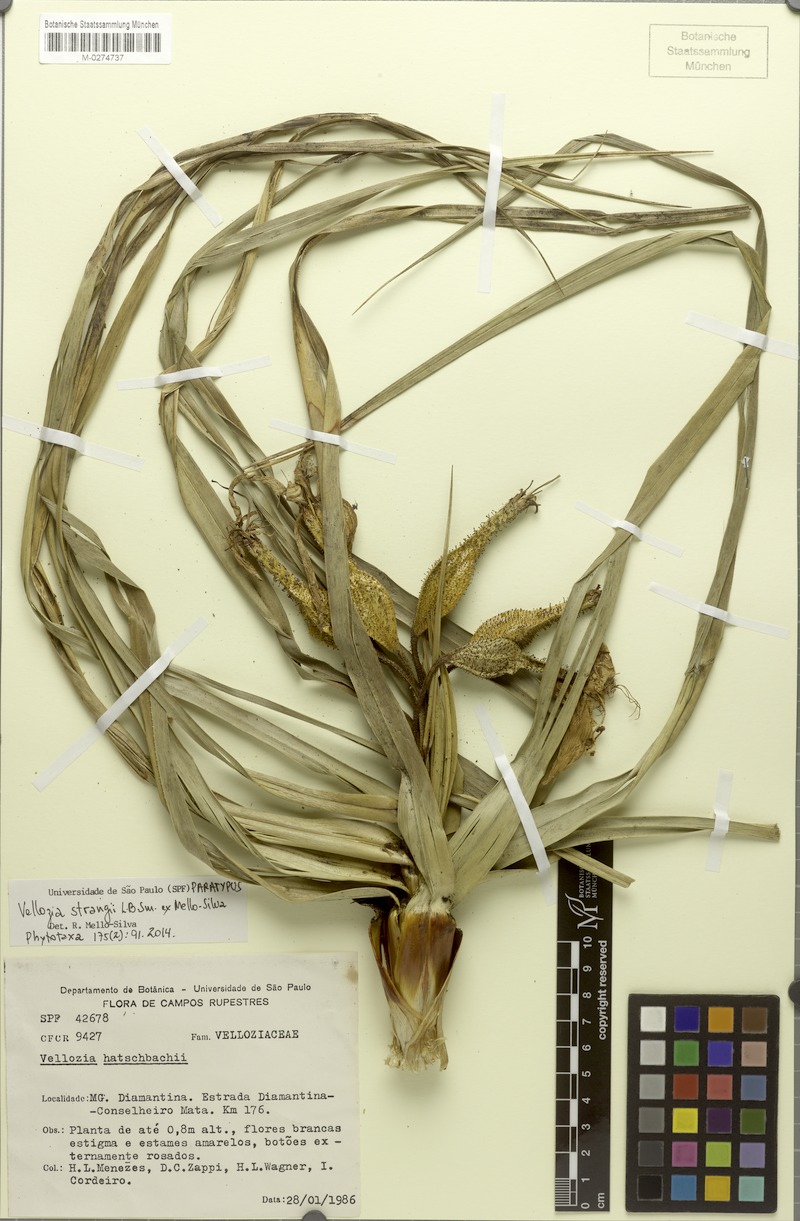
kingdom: Plantae
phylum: Tracheophyta
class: Liliopsida
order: Pandanales
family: Velloziaceae
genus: Vellozia
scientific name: Vellozia strangii
